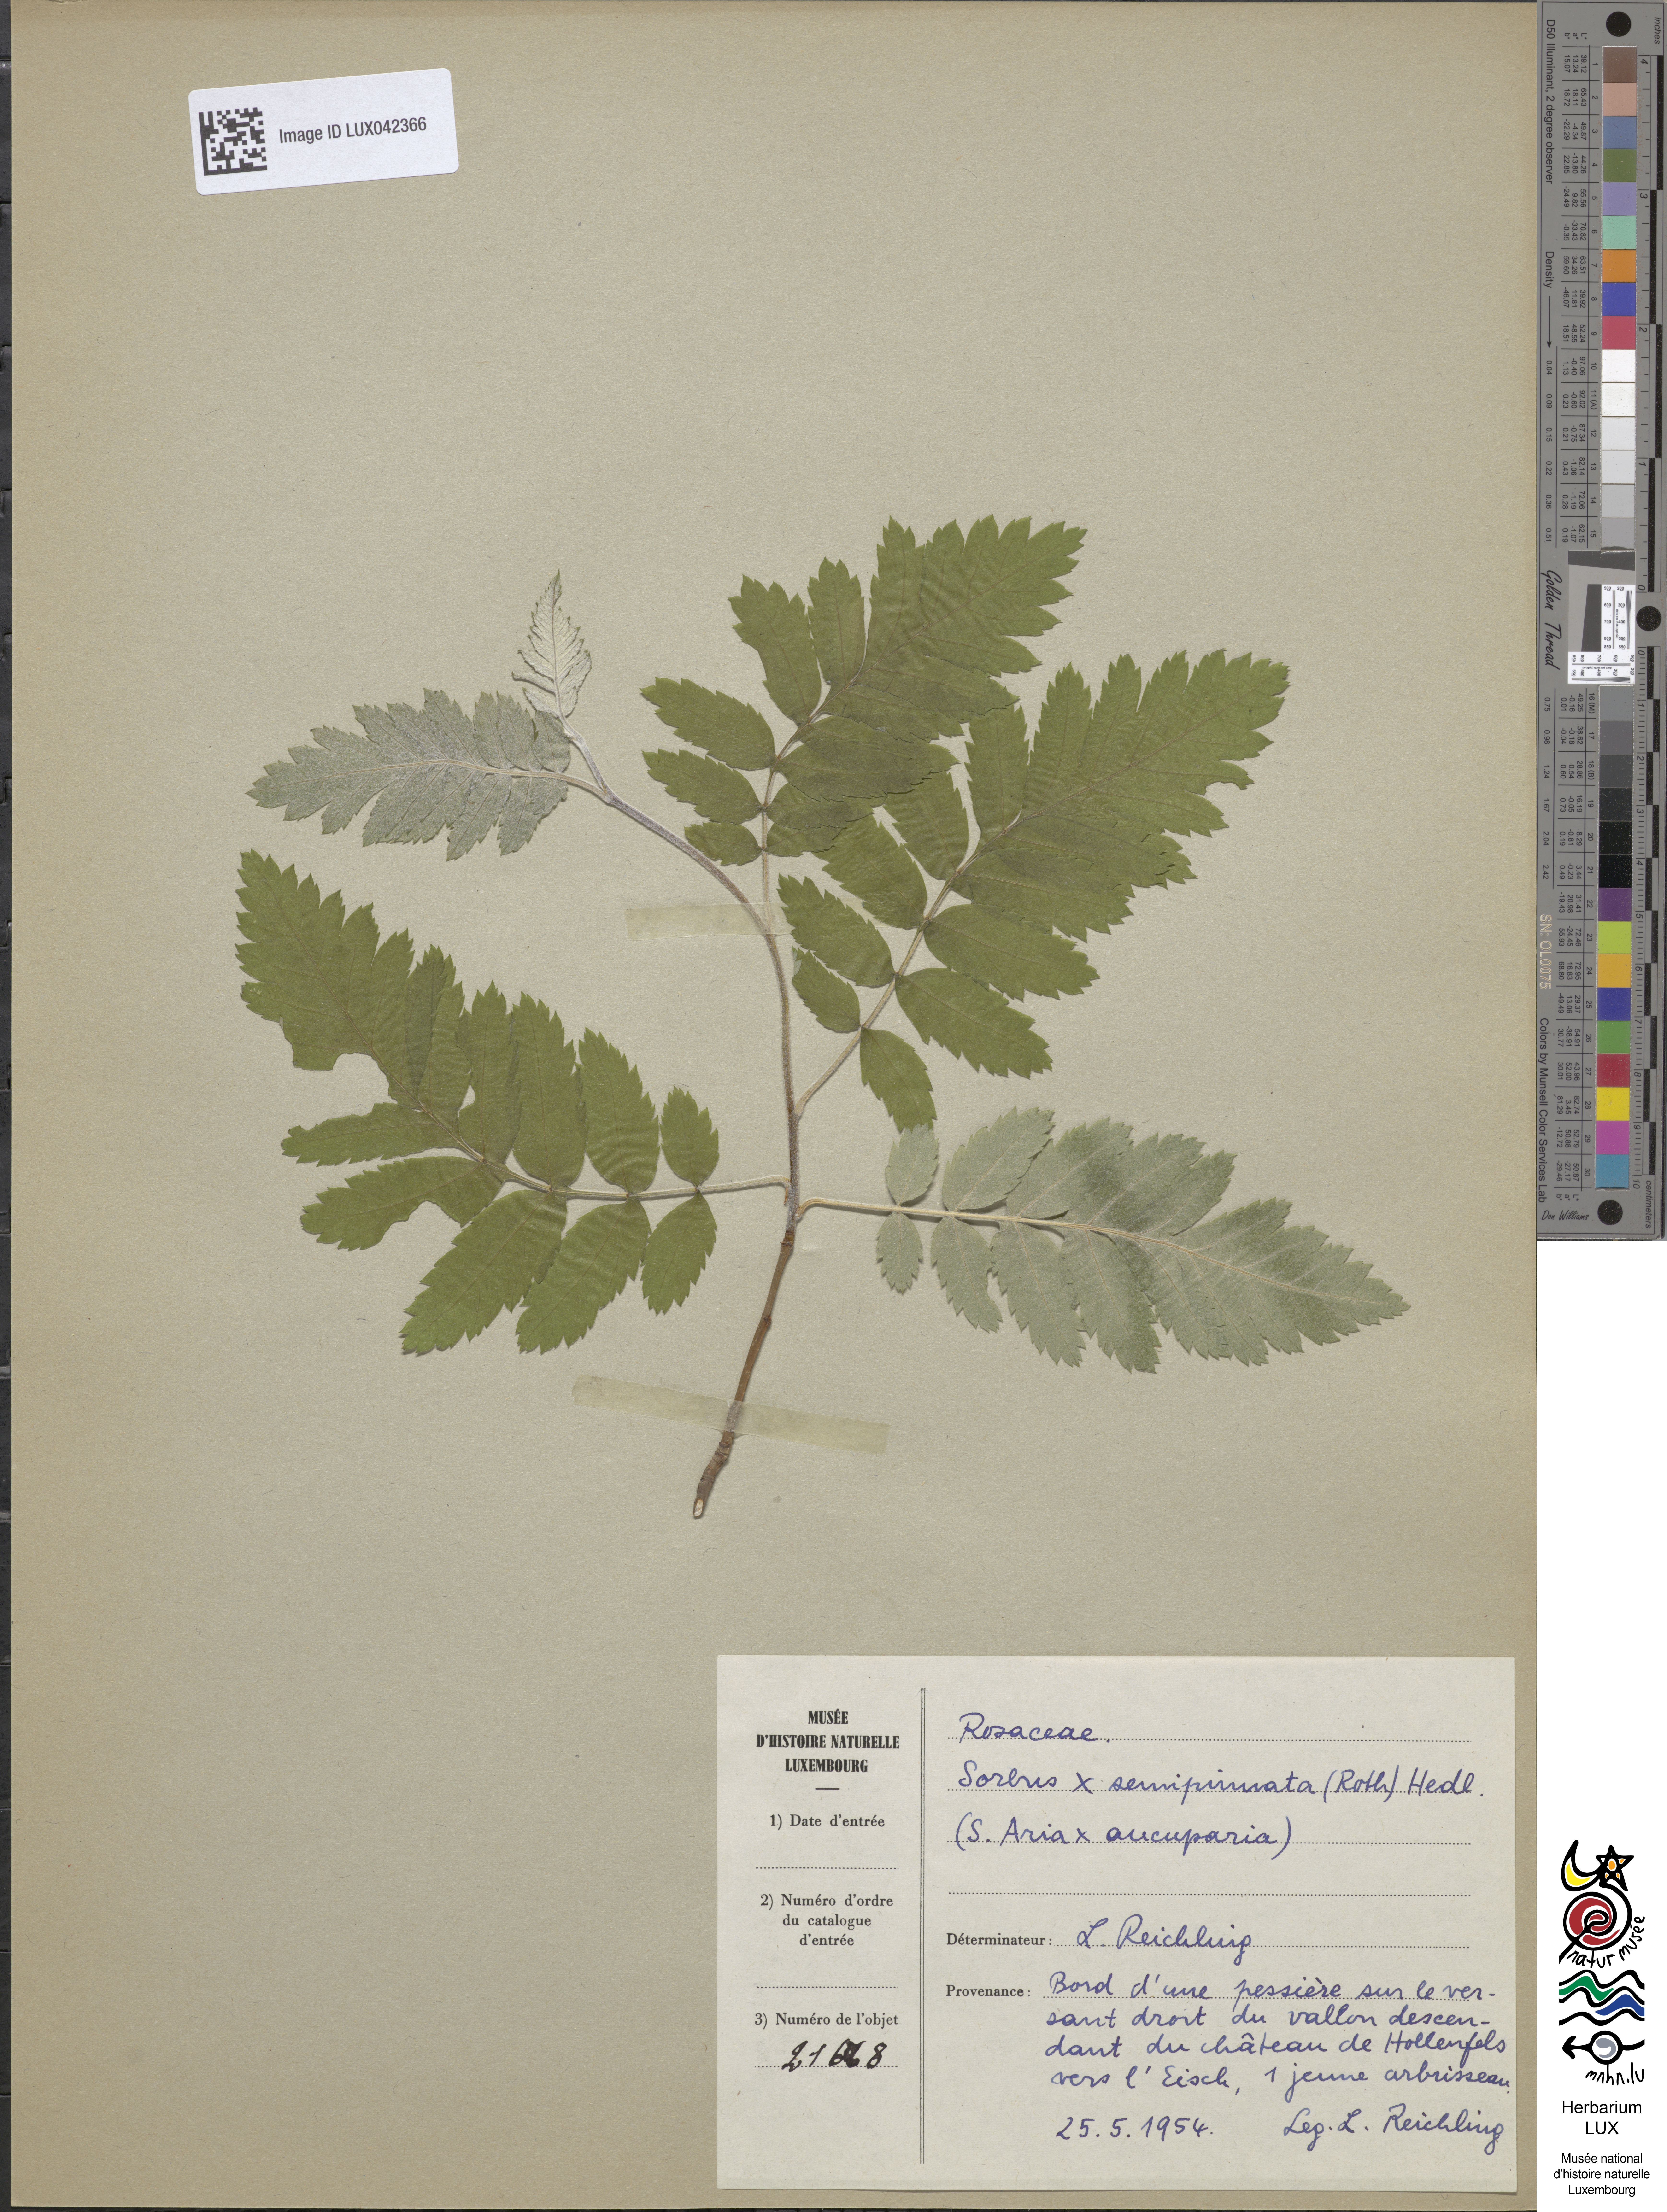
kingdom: Plantae
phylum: Tracheophyta
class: Magnoliopsida
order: Rosales
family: Rosaceae
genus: Hedlundia
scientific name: Hedlundia
